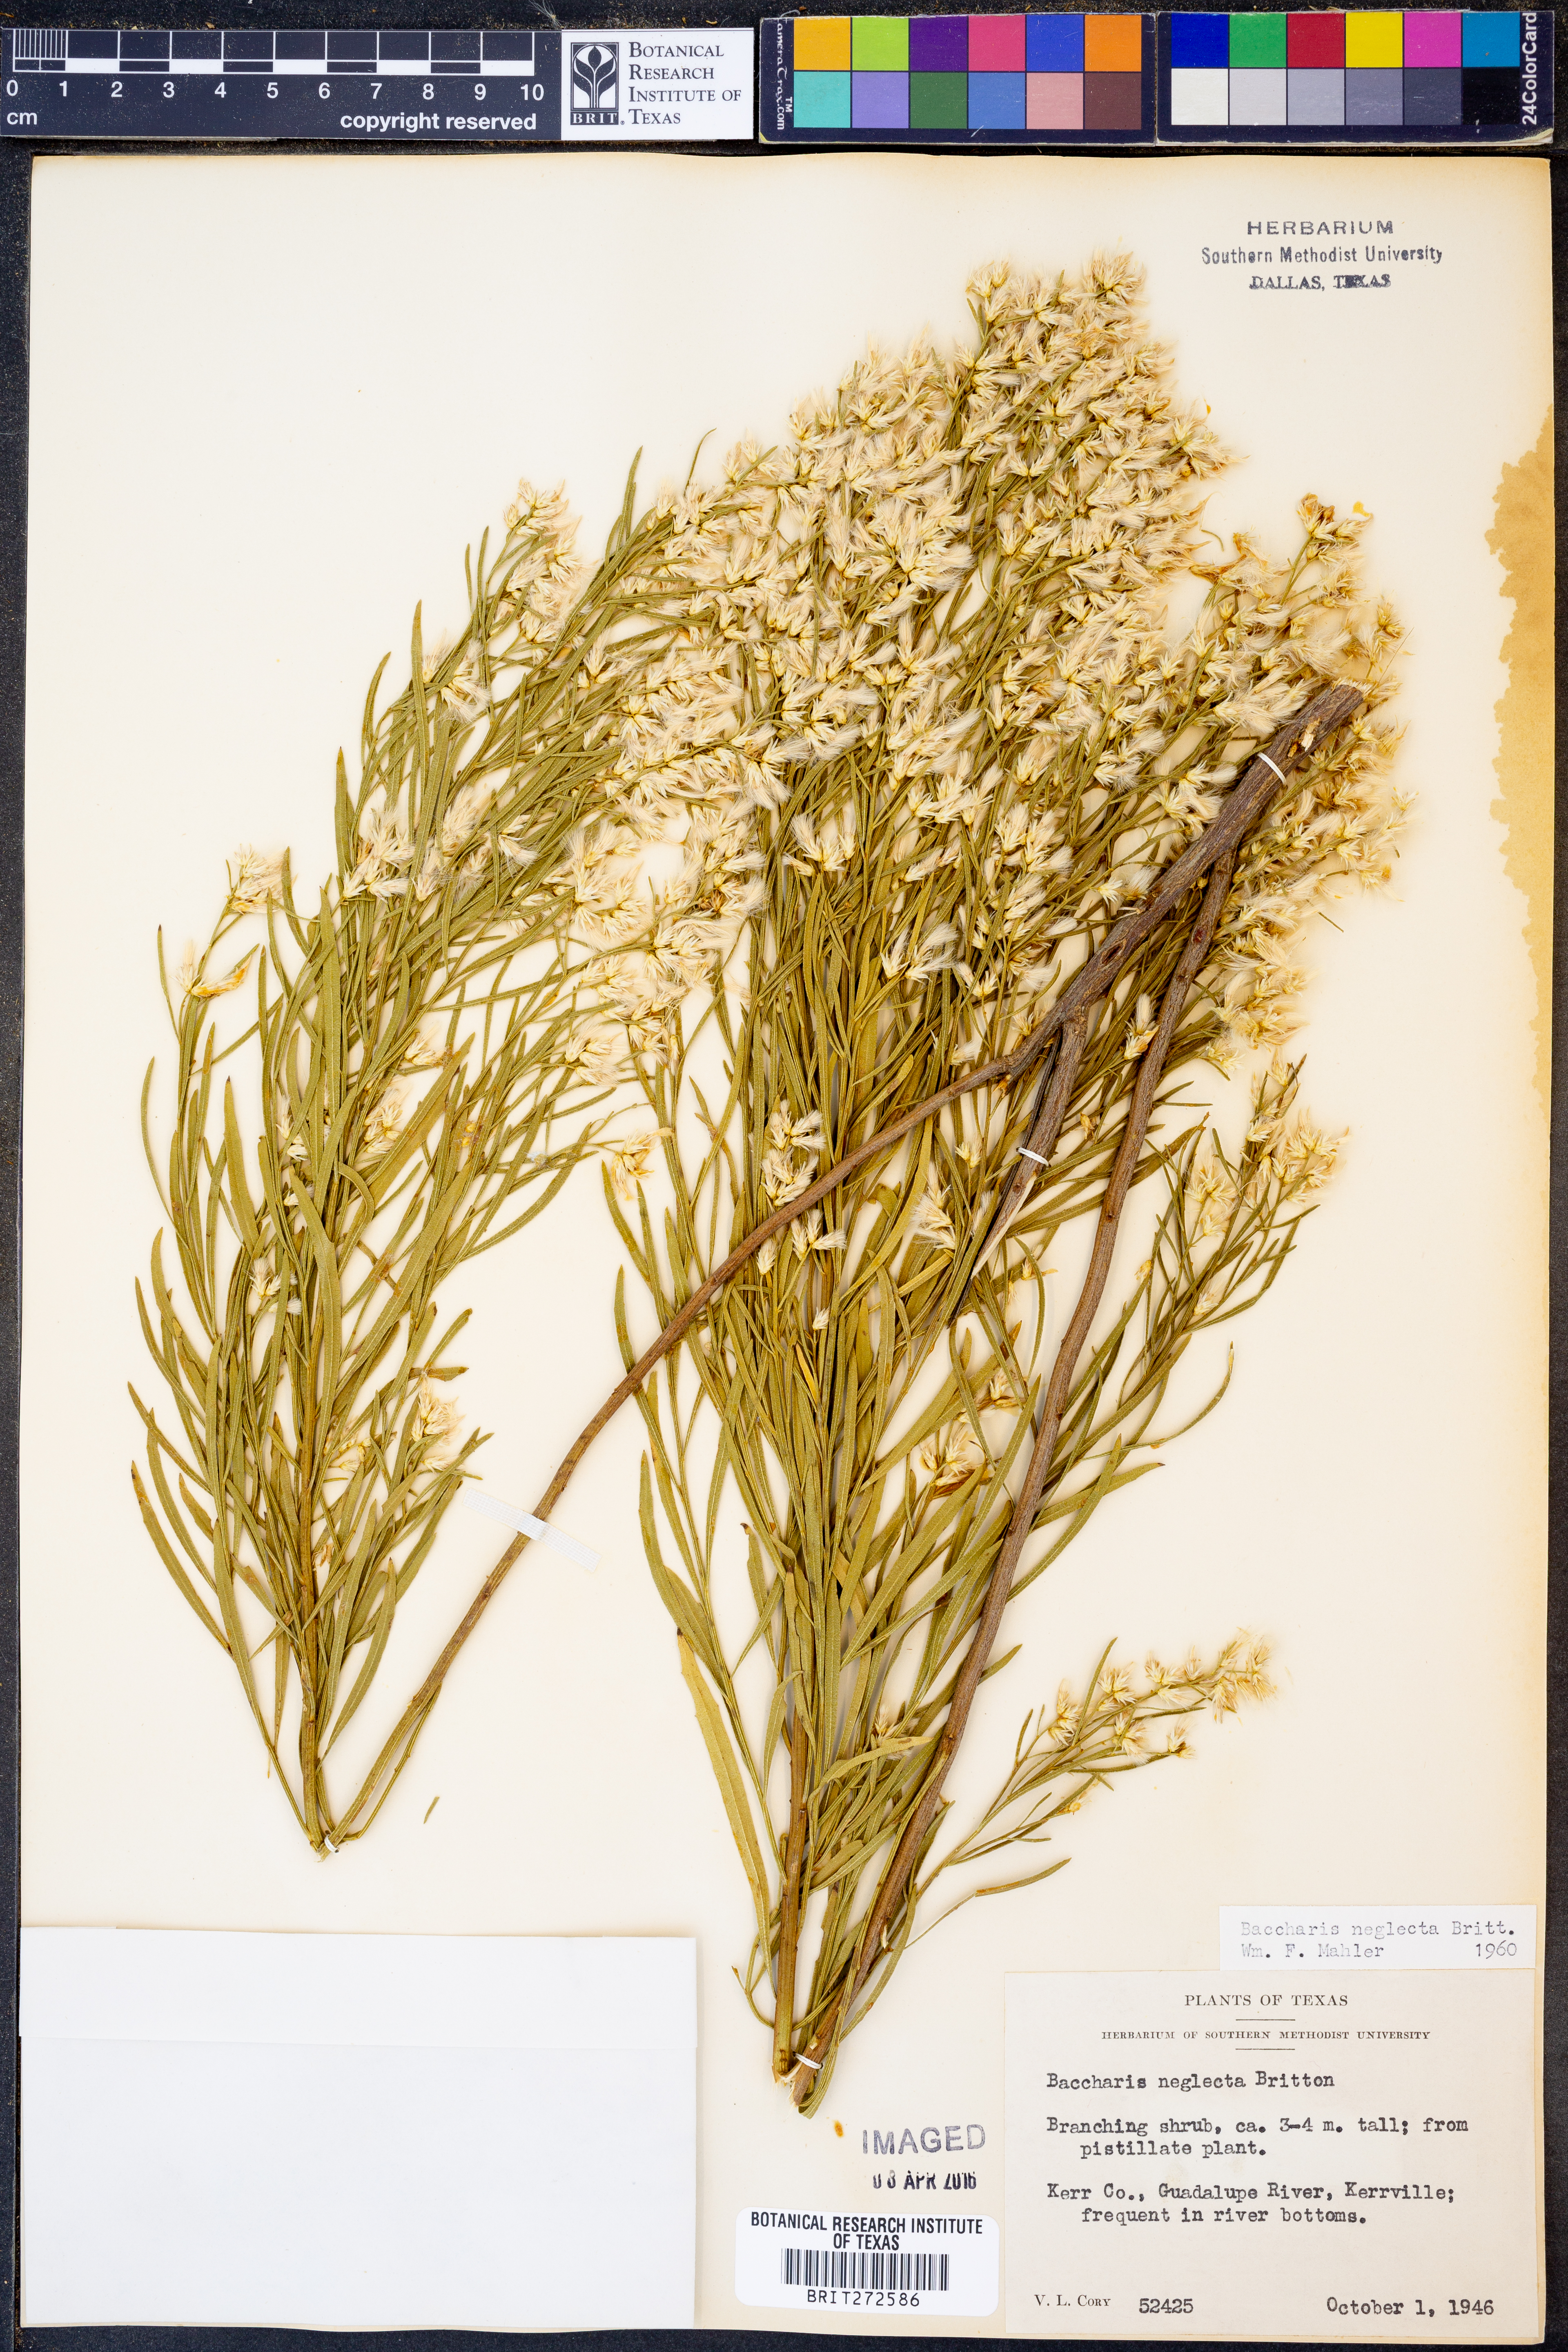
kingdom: Plantae
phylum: Tracheophyta
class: Magnoliopsida
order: Asterales
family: Asteraceae
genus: Baccharis
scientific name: Baccharis neglecta
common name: Roosevelt-weed
